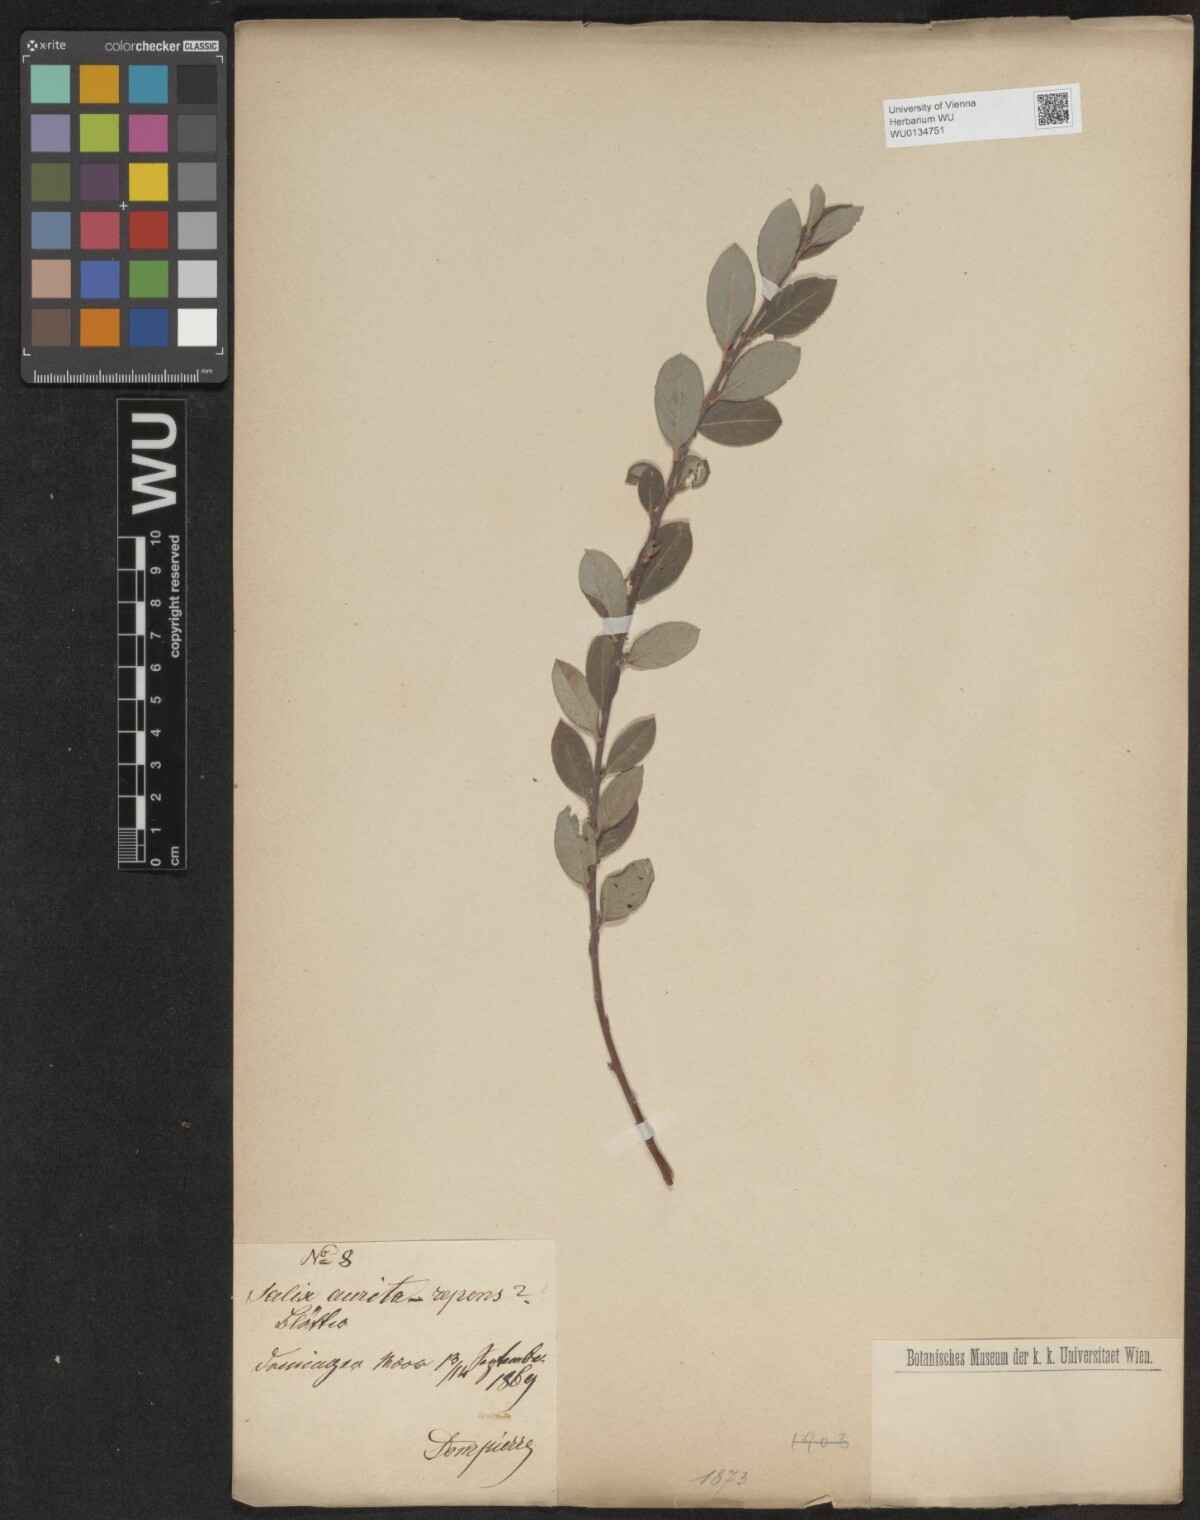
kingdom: Plantae
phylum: Tracheophyta
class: Magnoliopsida
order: Malpighiales
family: Salicaceae
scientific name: Salicaceae
